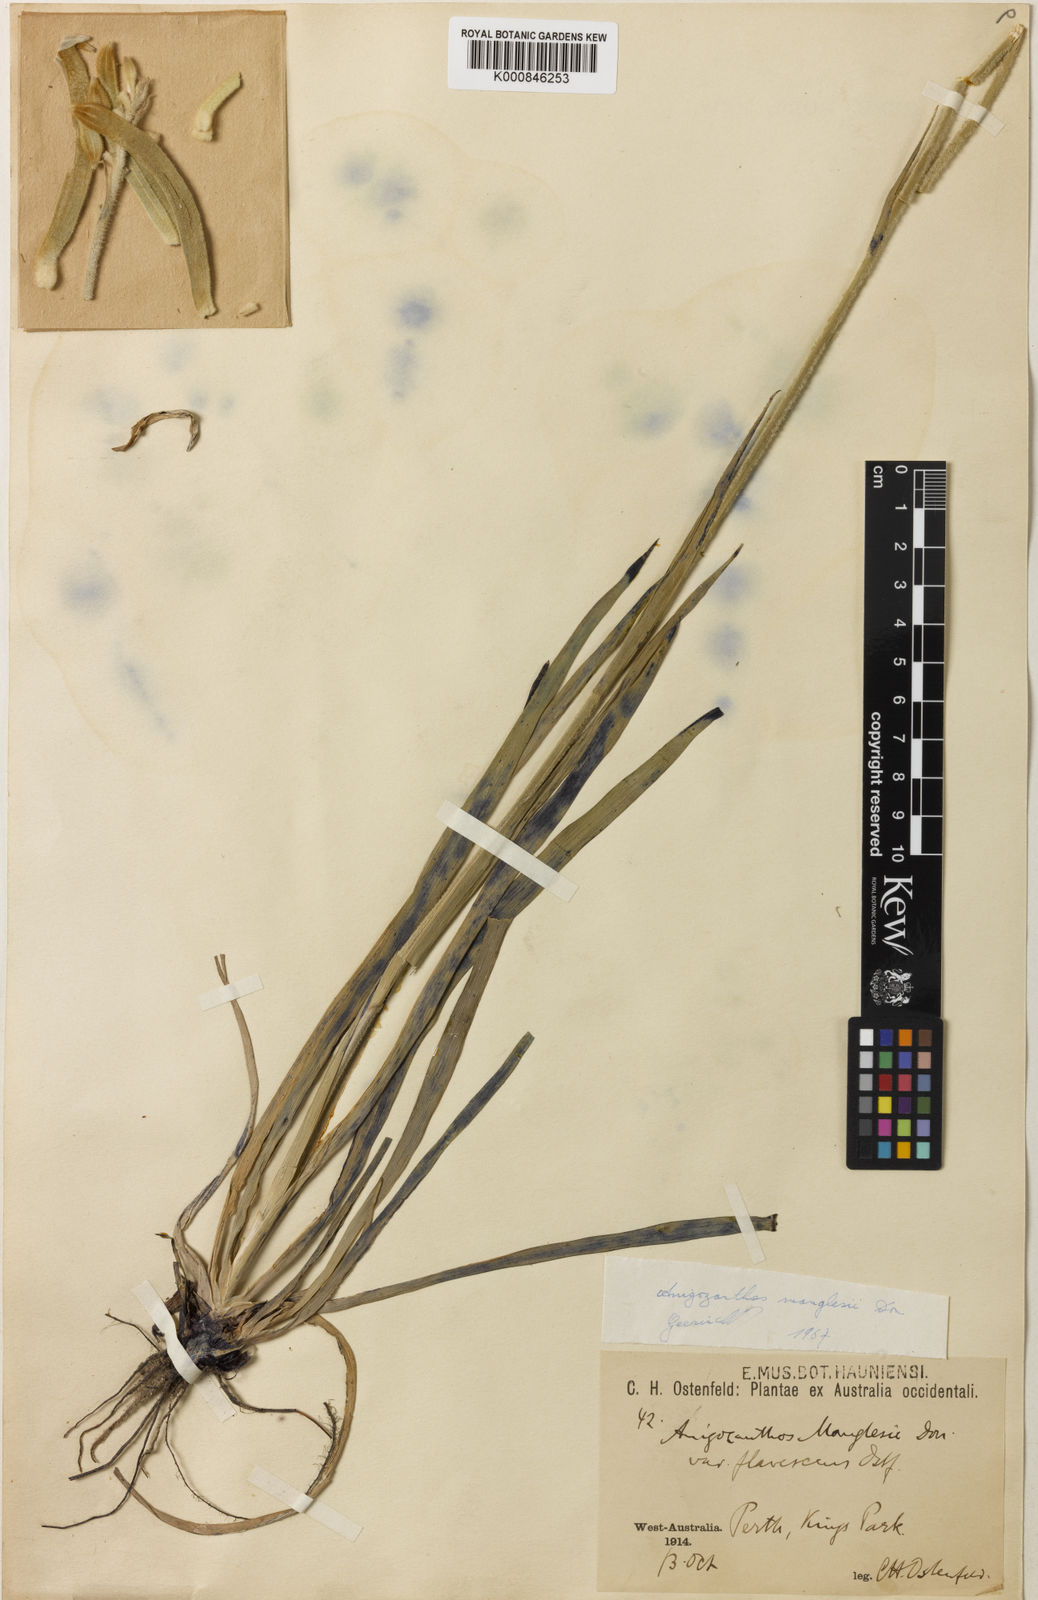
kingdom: Plantae
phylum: Tracheophyta
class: Liliopsida
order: Commelinales
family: Haemodoraceae
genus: Anigozanthos
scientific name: Anigozanthos manglesii
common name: Mangles's kangaroo-paw
